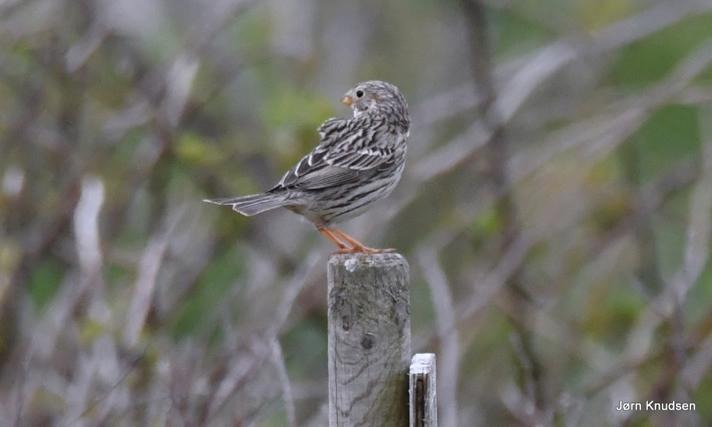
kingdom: Animalia
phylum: Chordata
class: Aves
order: Passeriformes
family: Emberizidae
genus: Emberiza
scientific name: Emberiza calandra
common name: Bomlærke
